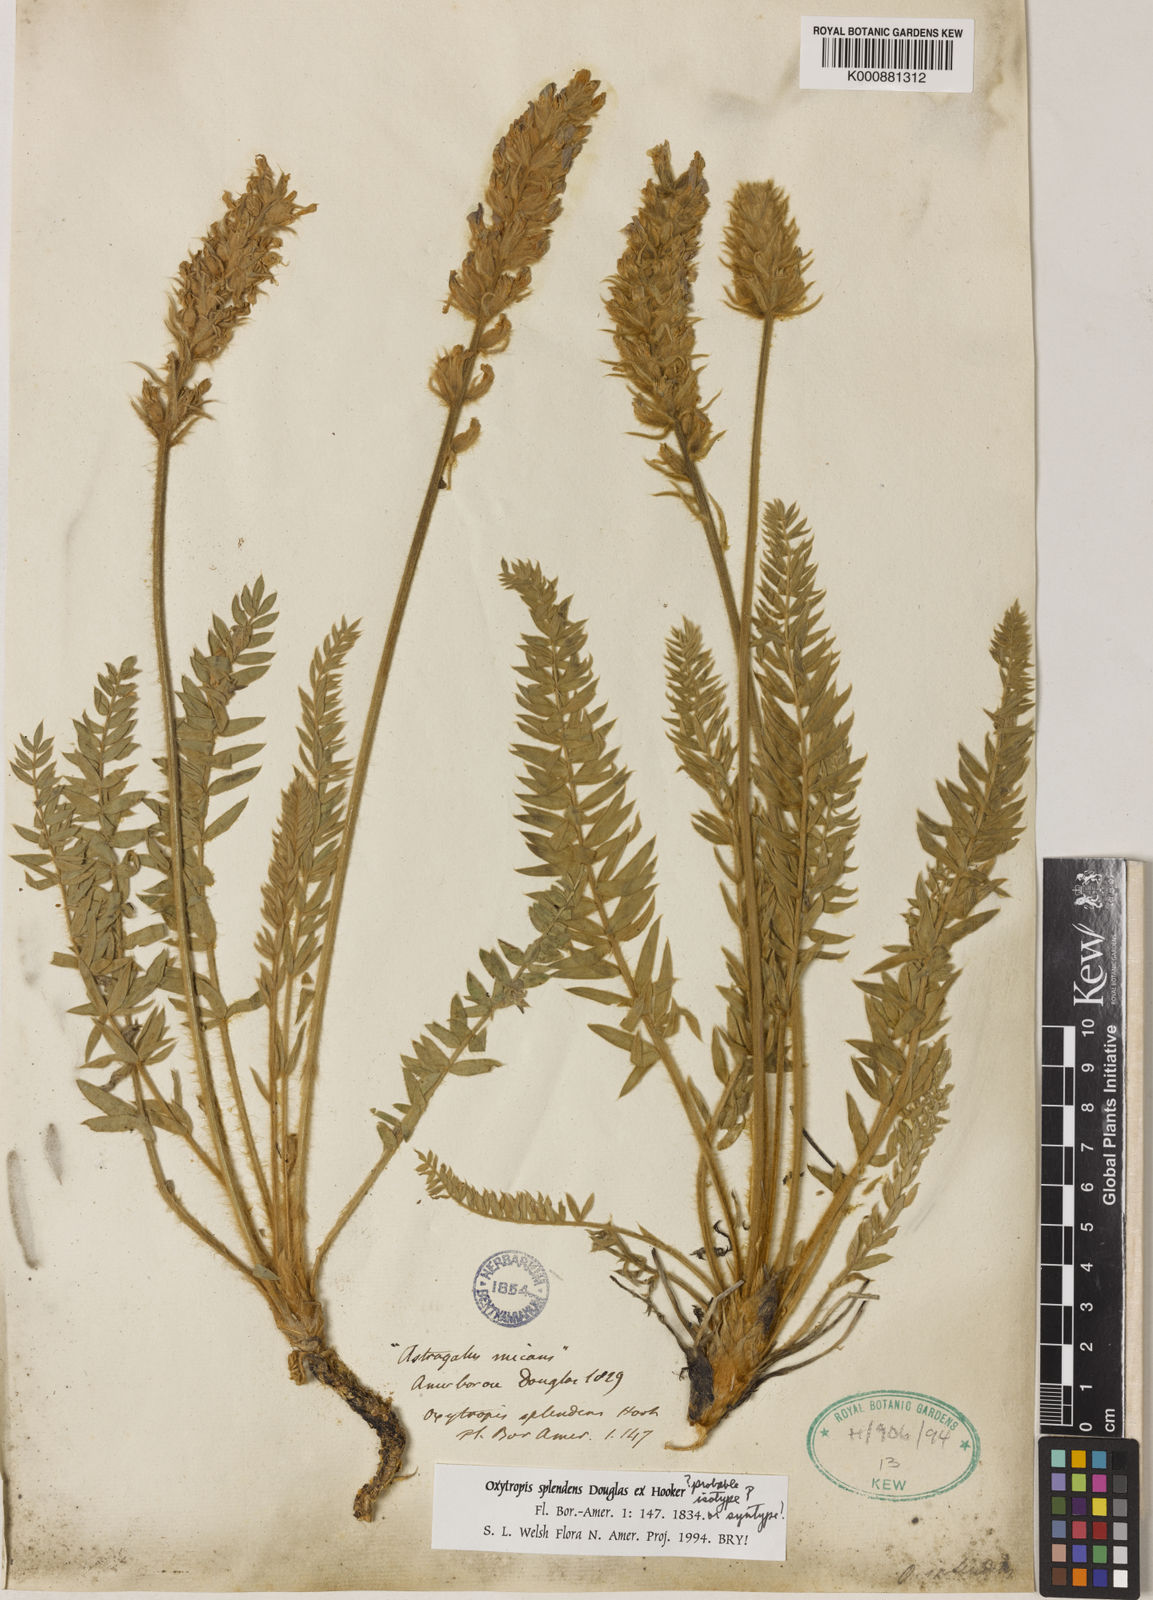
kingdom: Plantae
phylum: Tracheophyta
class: Magnoliopsida
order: Fabales
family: Fabaceae
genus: Oxytropis
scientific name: Oxytropis
